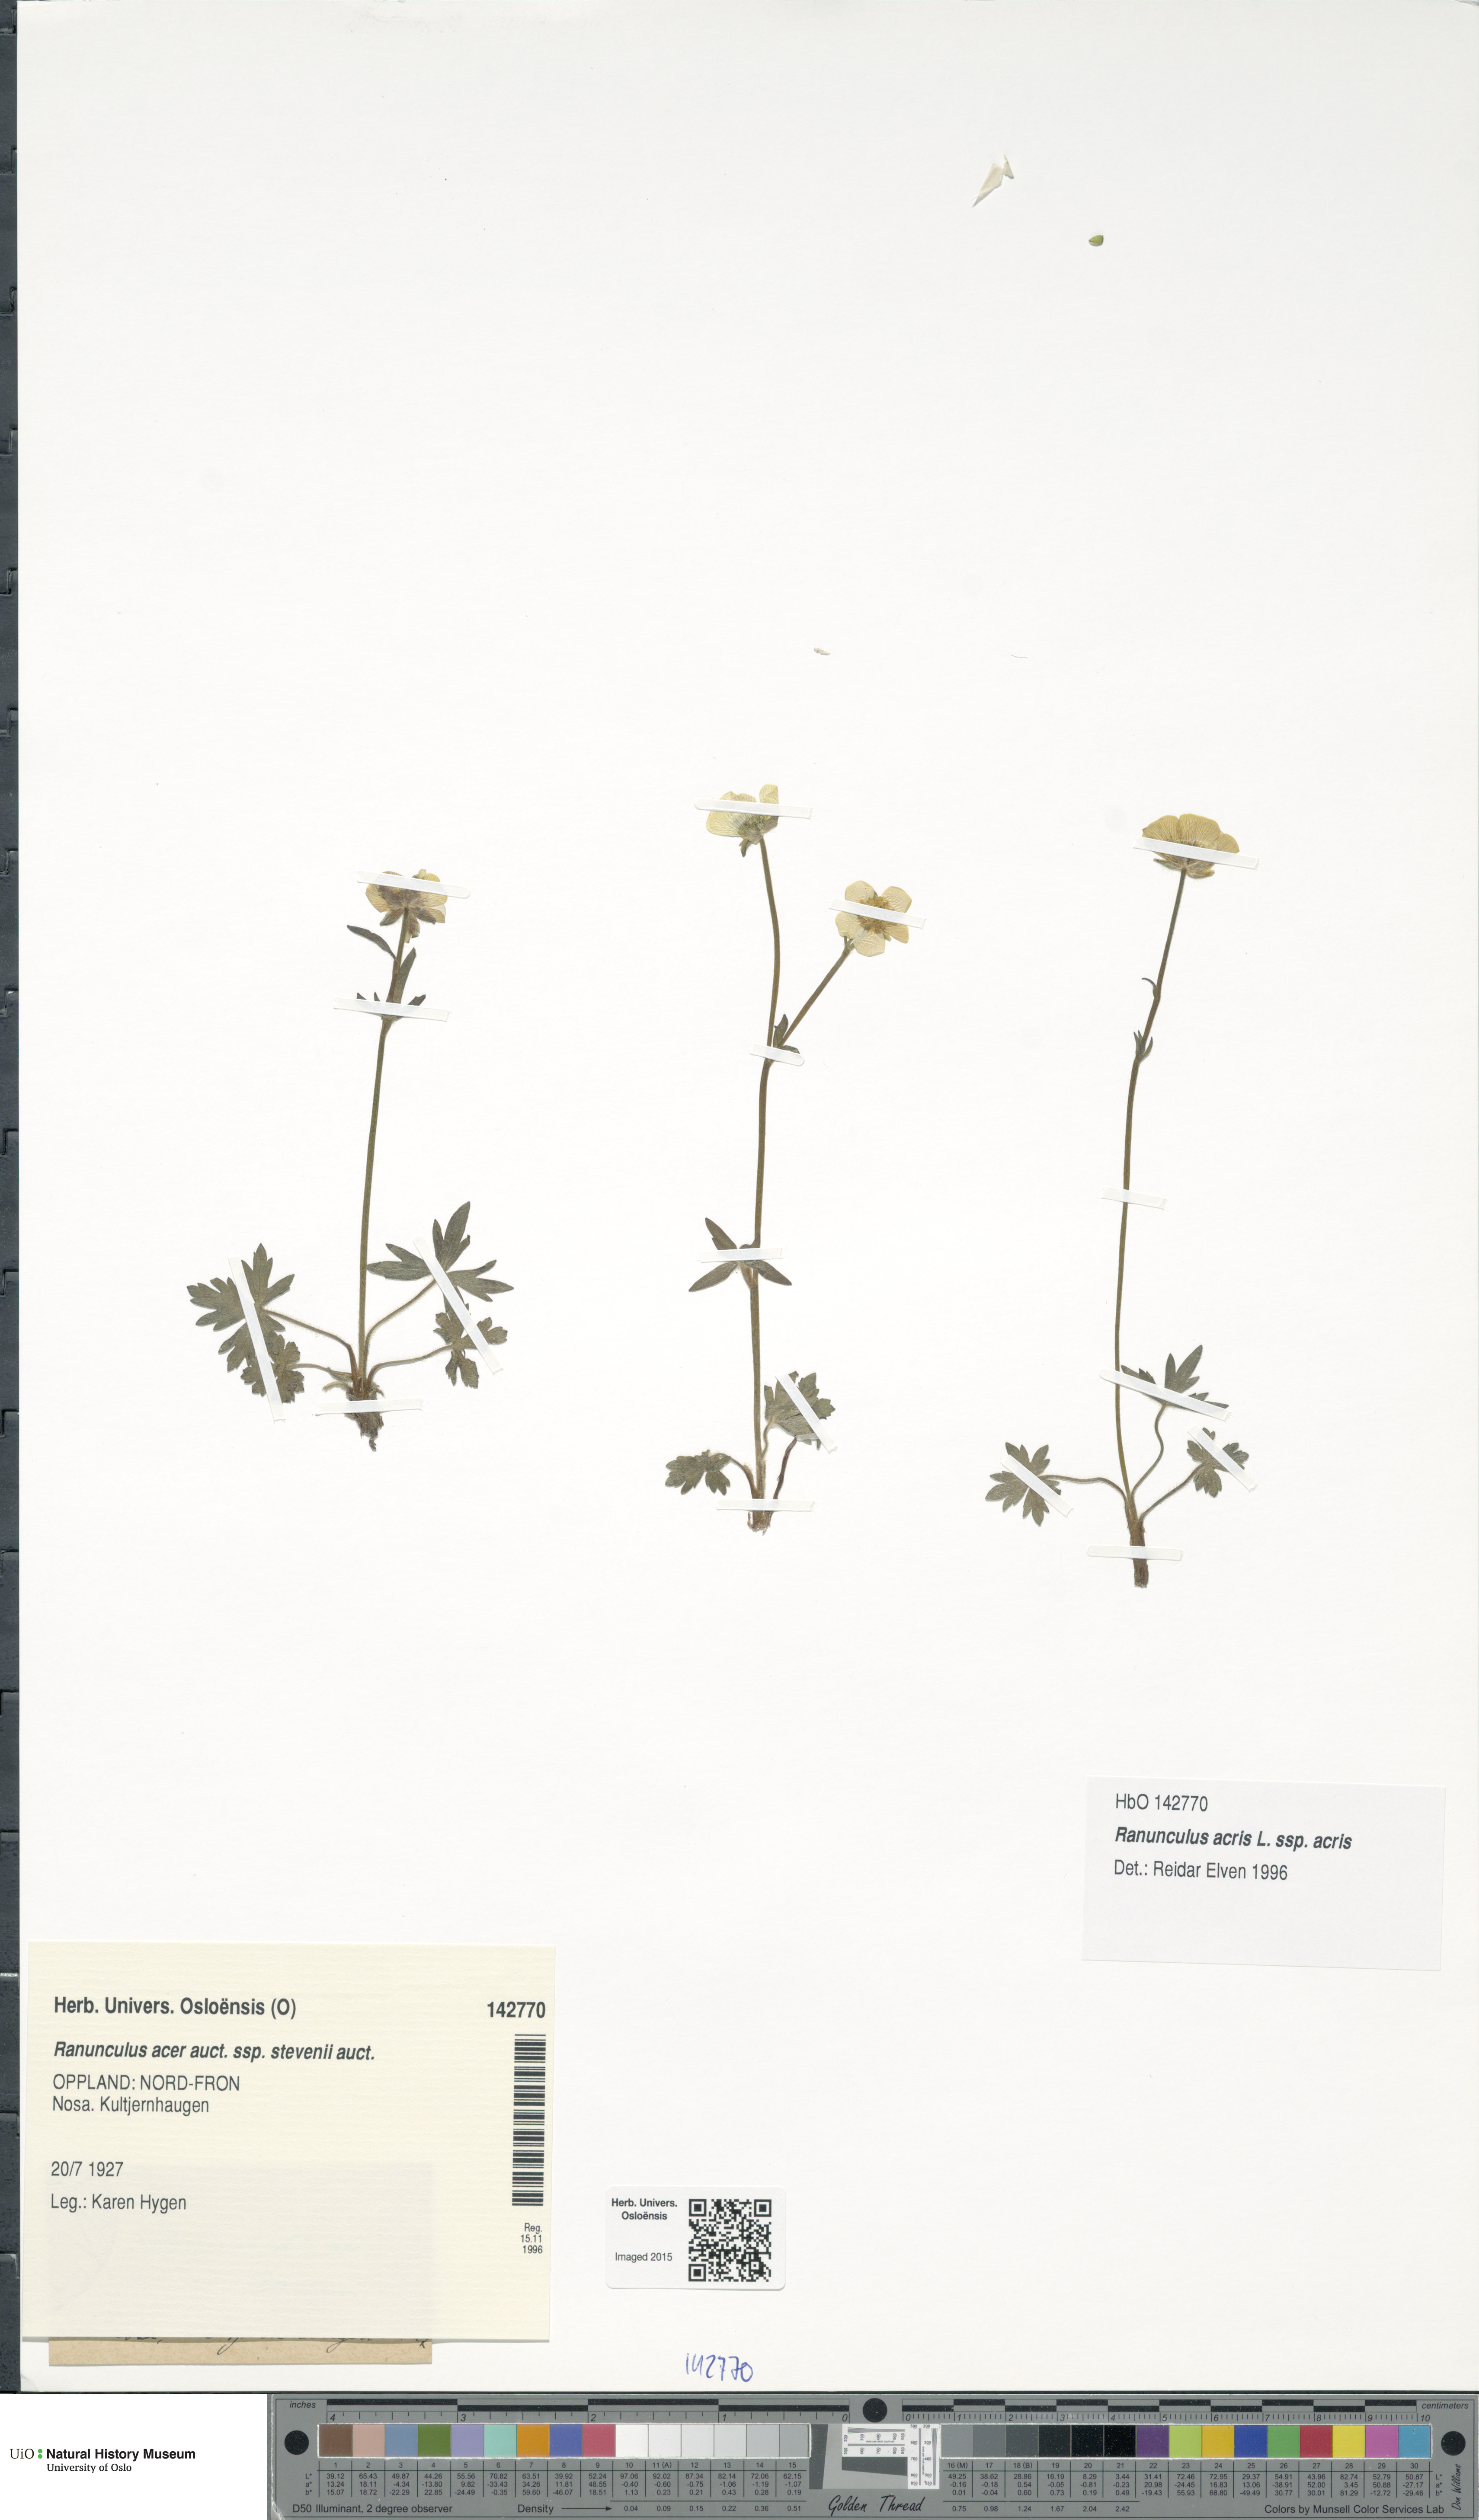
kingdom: Plantae
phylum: Tracheophyta
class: Magnoliopsida
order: Ranunculales
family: Ranunculaceae
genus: Ranunculus
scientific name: Ranunculus acris
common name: Meadow buttercup
